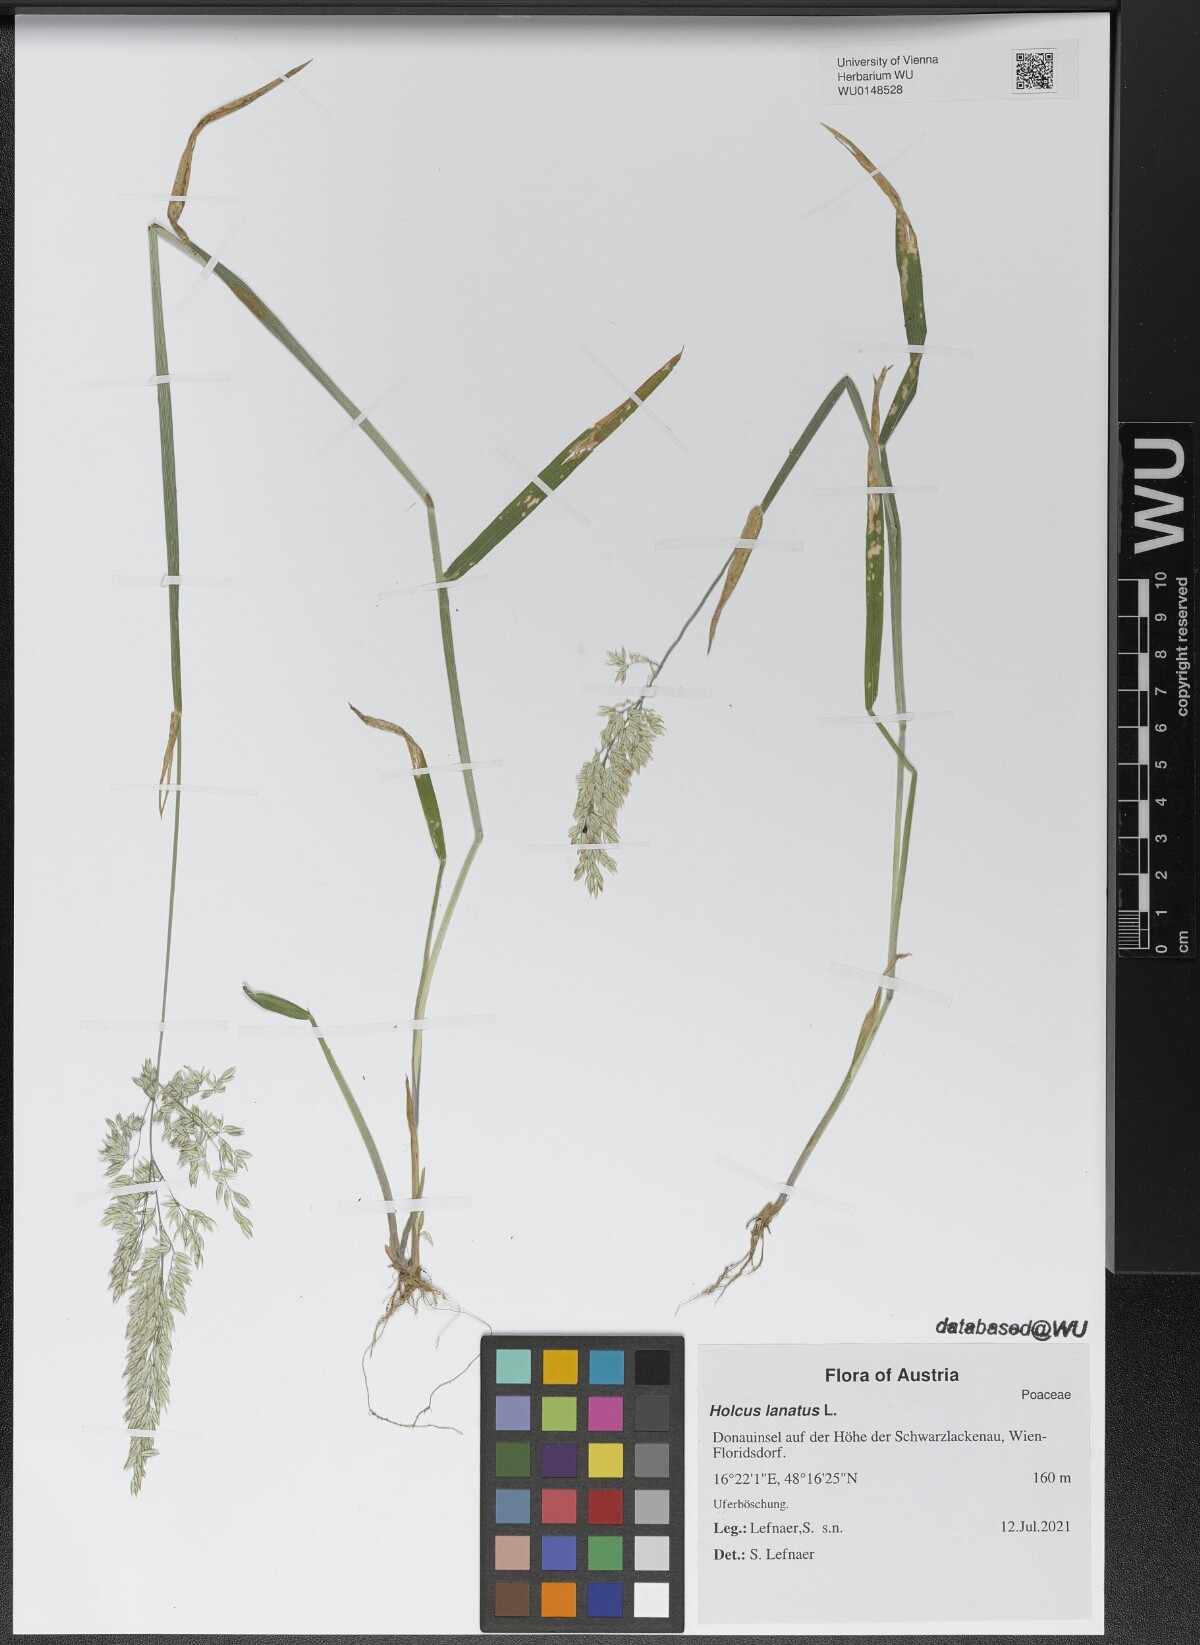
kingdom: Plantae
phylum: Tracheophyta
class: Liliopsida
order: Poales
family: Poaceae
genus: Holcus
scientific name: Holcus lanatus
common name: Yorkshire-fog
